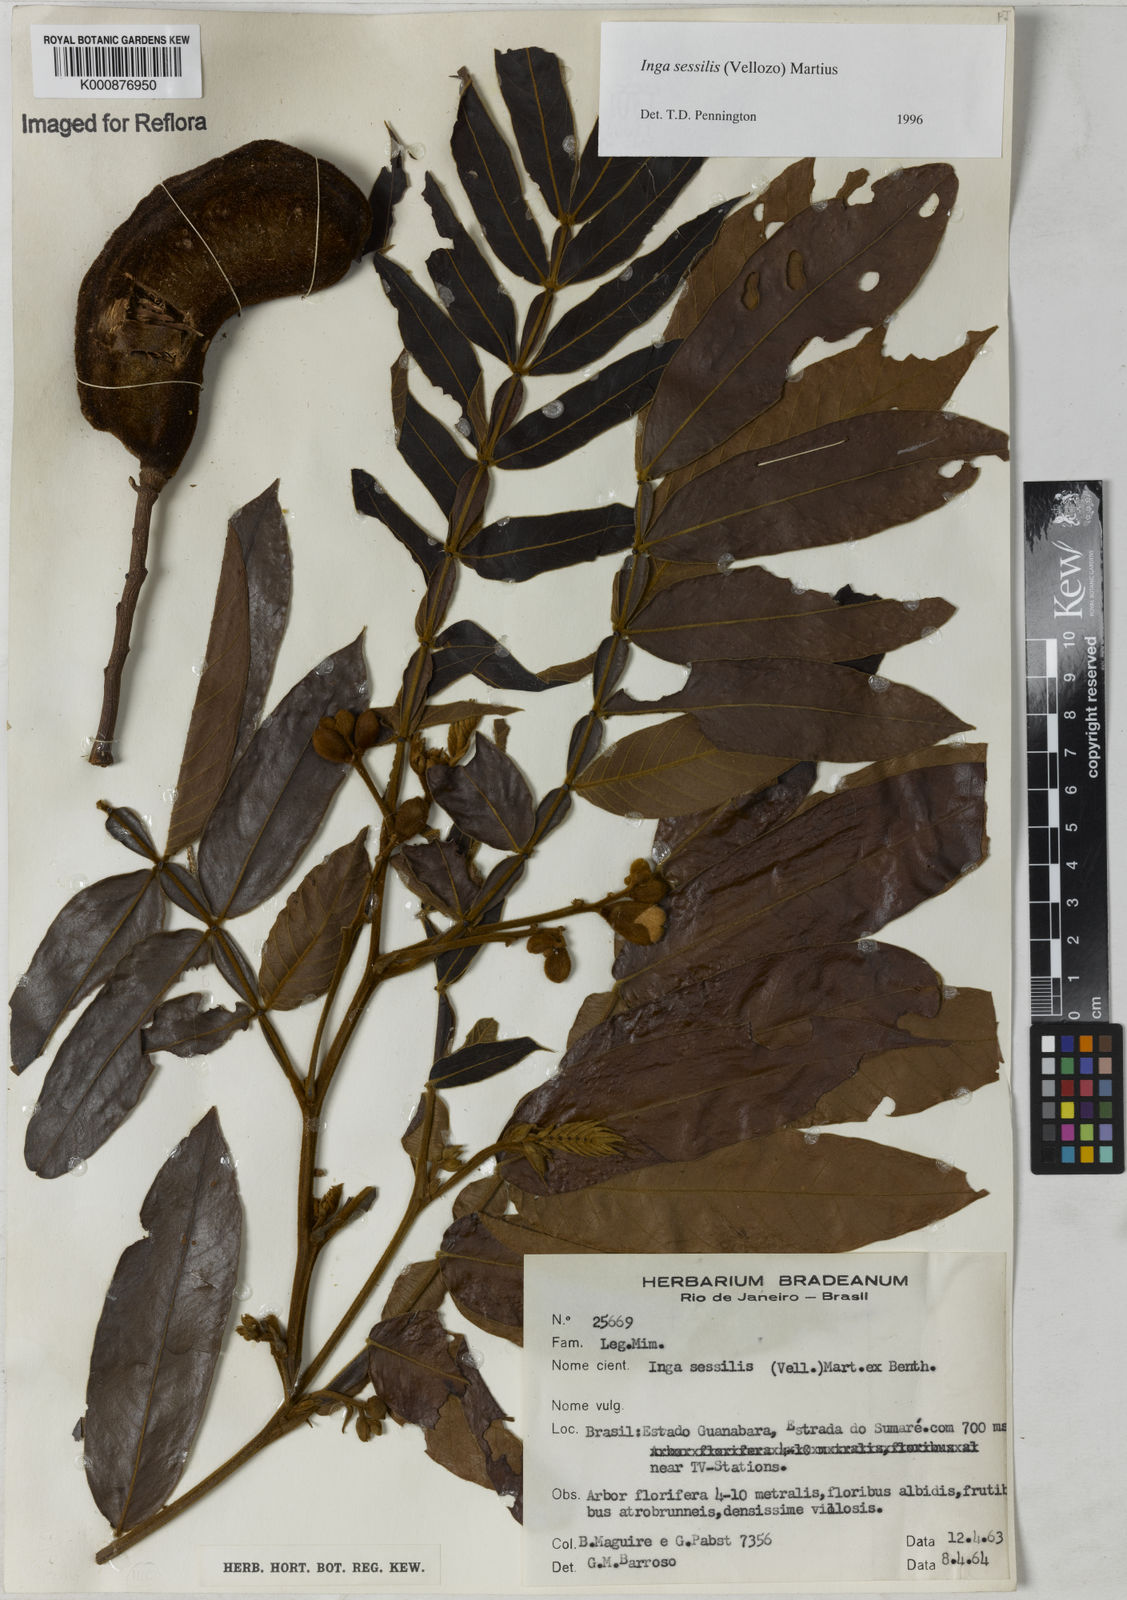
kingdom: Plantae
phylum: Tracheophyta
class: Magnoliopsida
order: Fabales
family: Fabaceae
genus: Inga
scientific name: Inga sessilis
